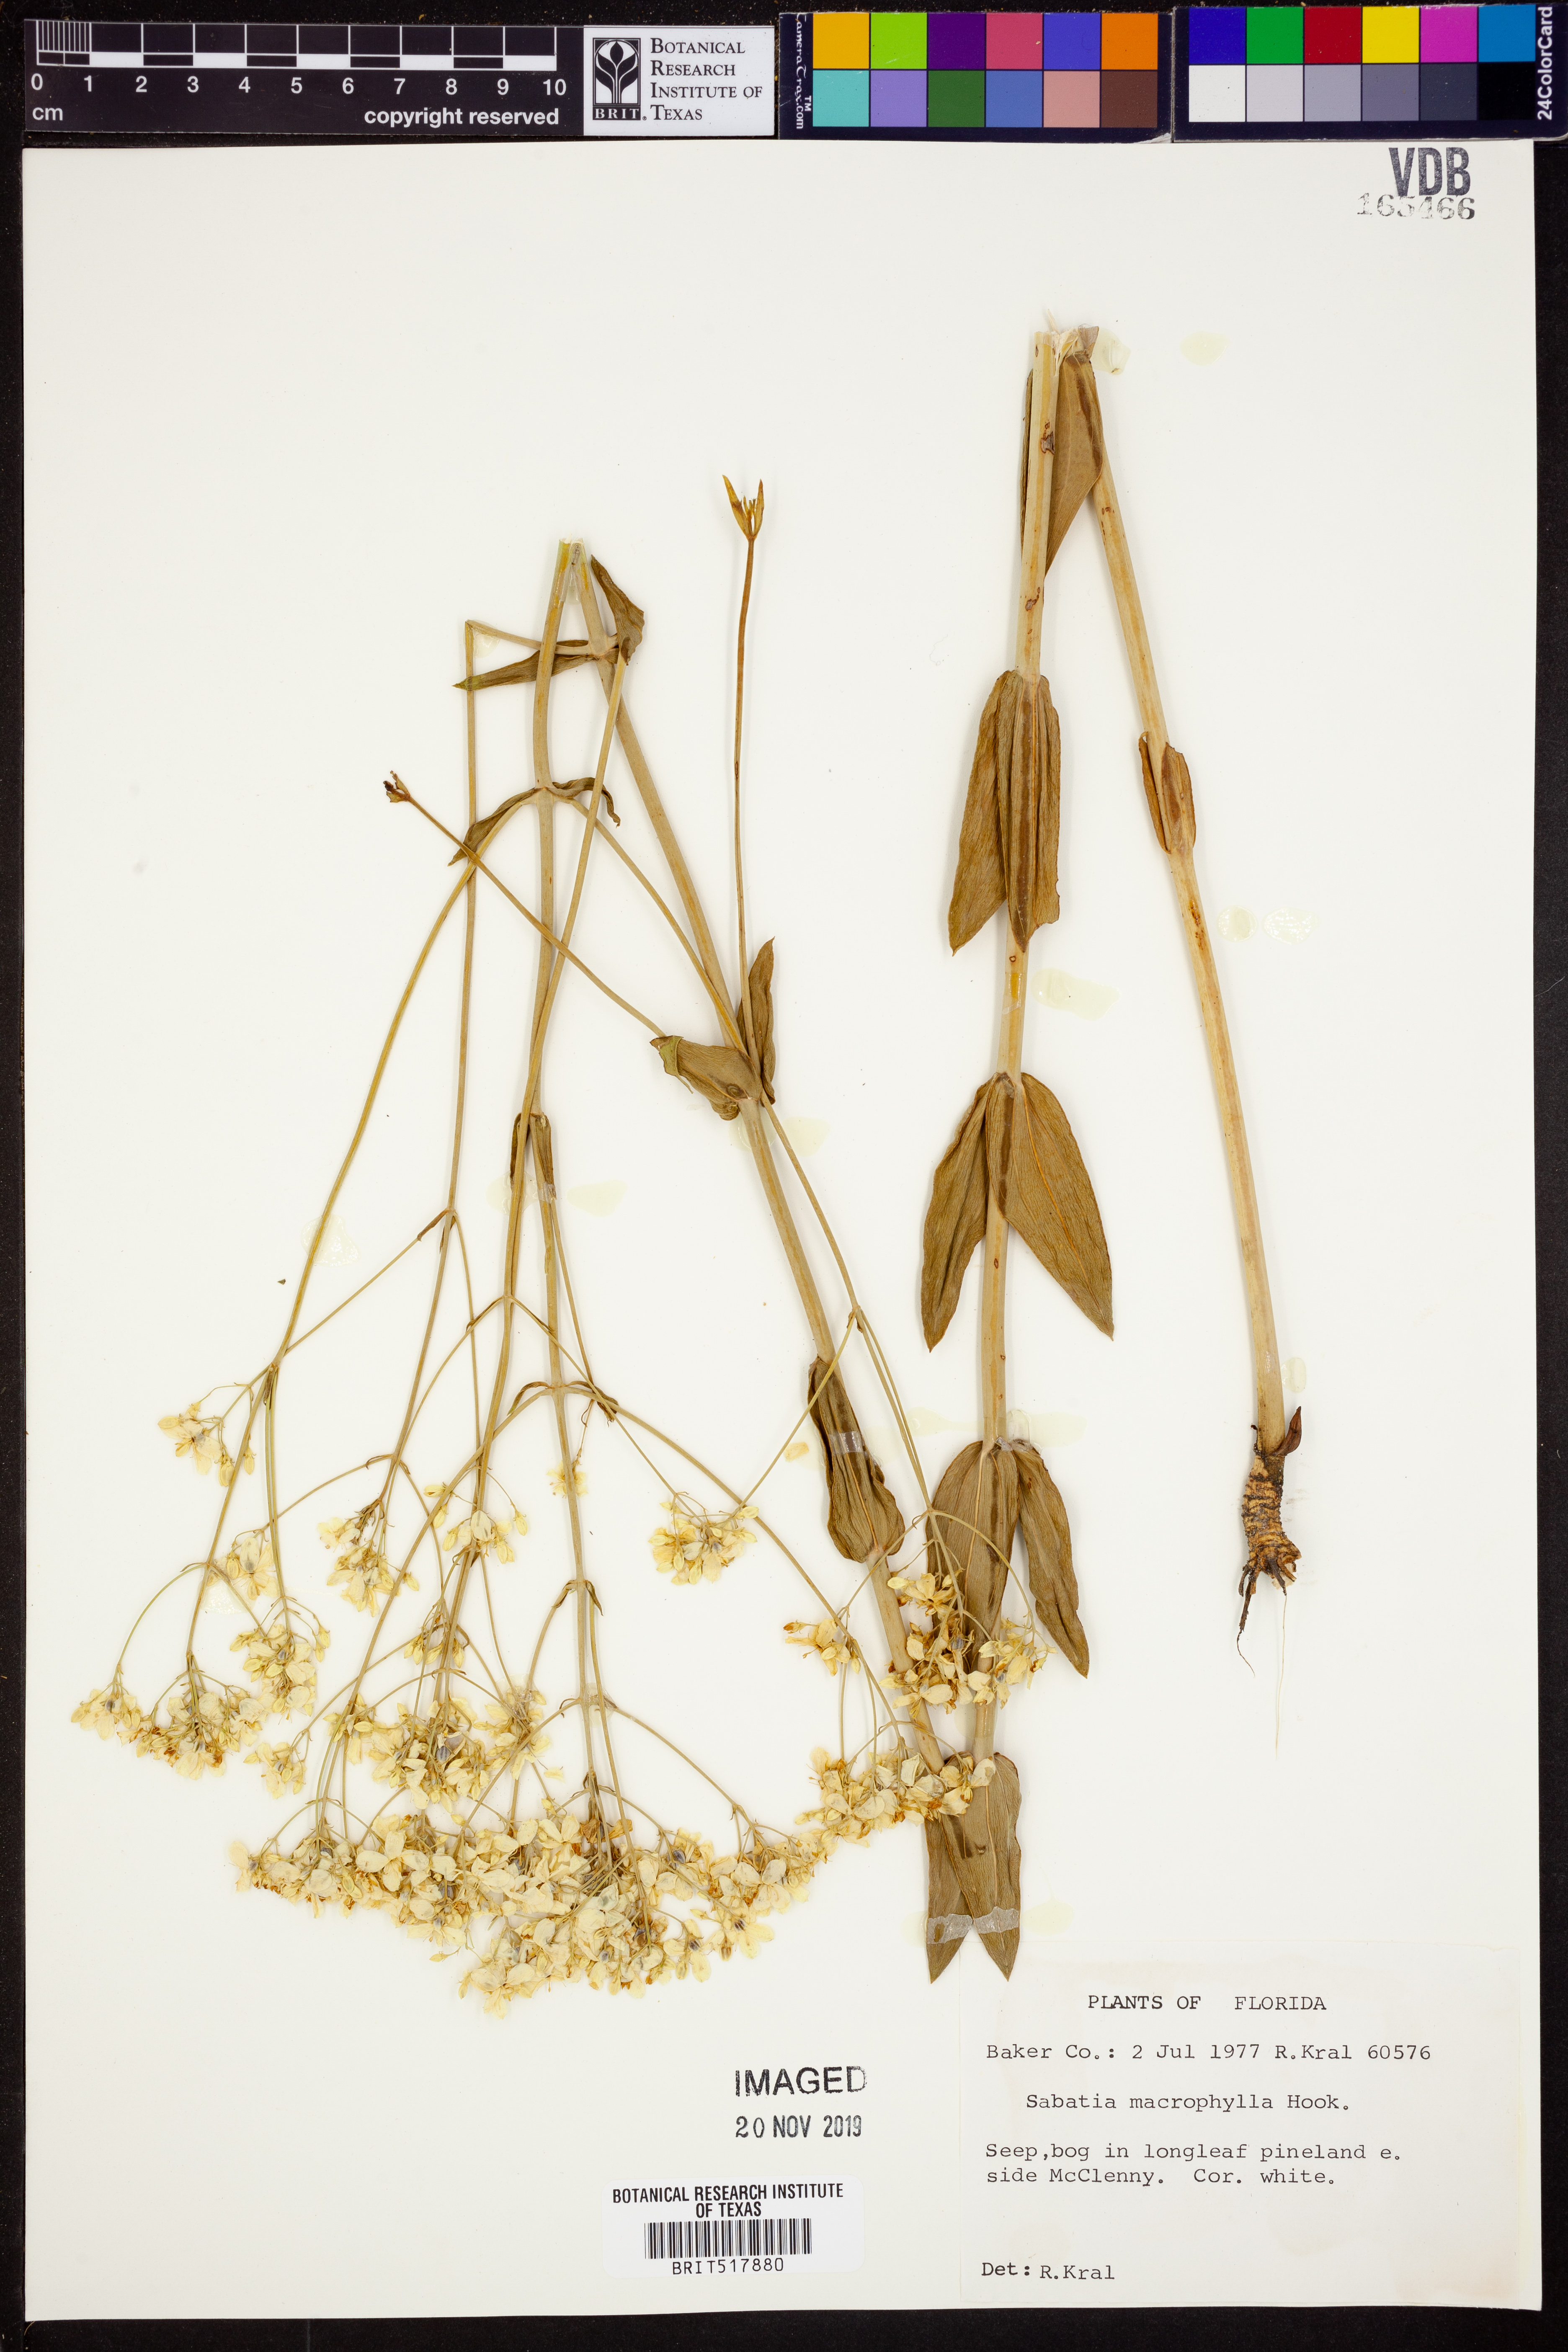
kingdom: Plantae
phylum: Tracheophyta
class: Magnoliopsida
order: Gentianales
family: Gentianaceae
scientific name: Gentianaceae
